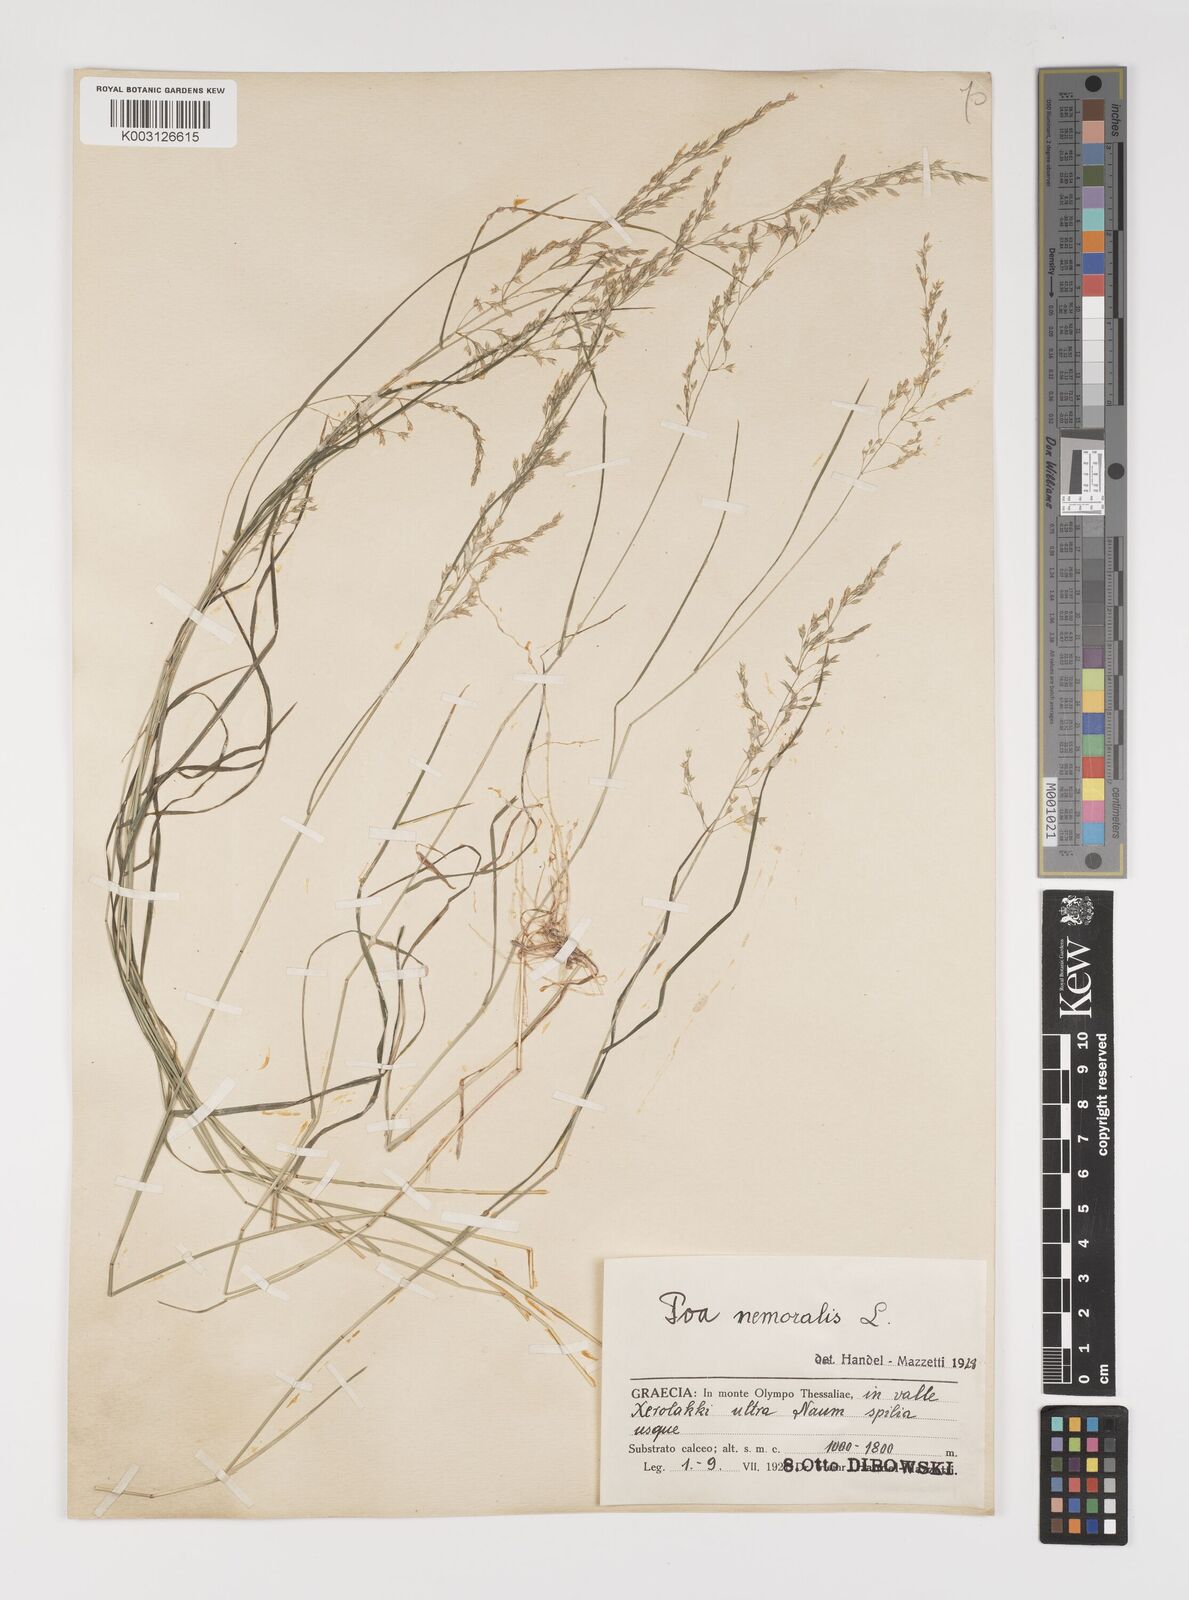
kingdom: Plantae
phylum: Tracheophyta
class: Liliopsida
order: Poales
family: Poaceae
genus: Poa
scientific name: Poa nemoralis
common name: Wood bluegrass
